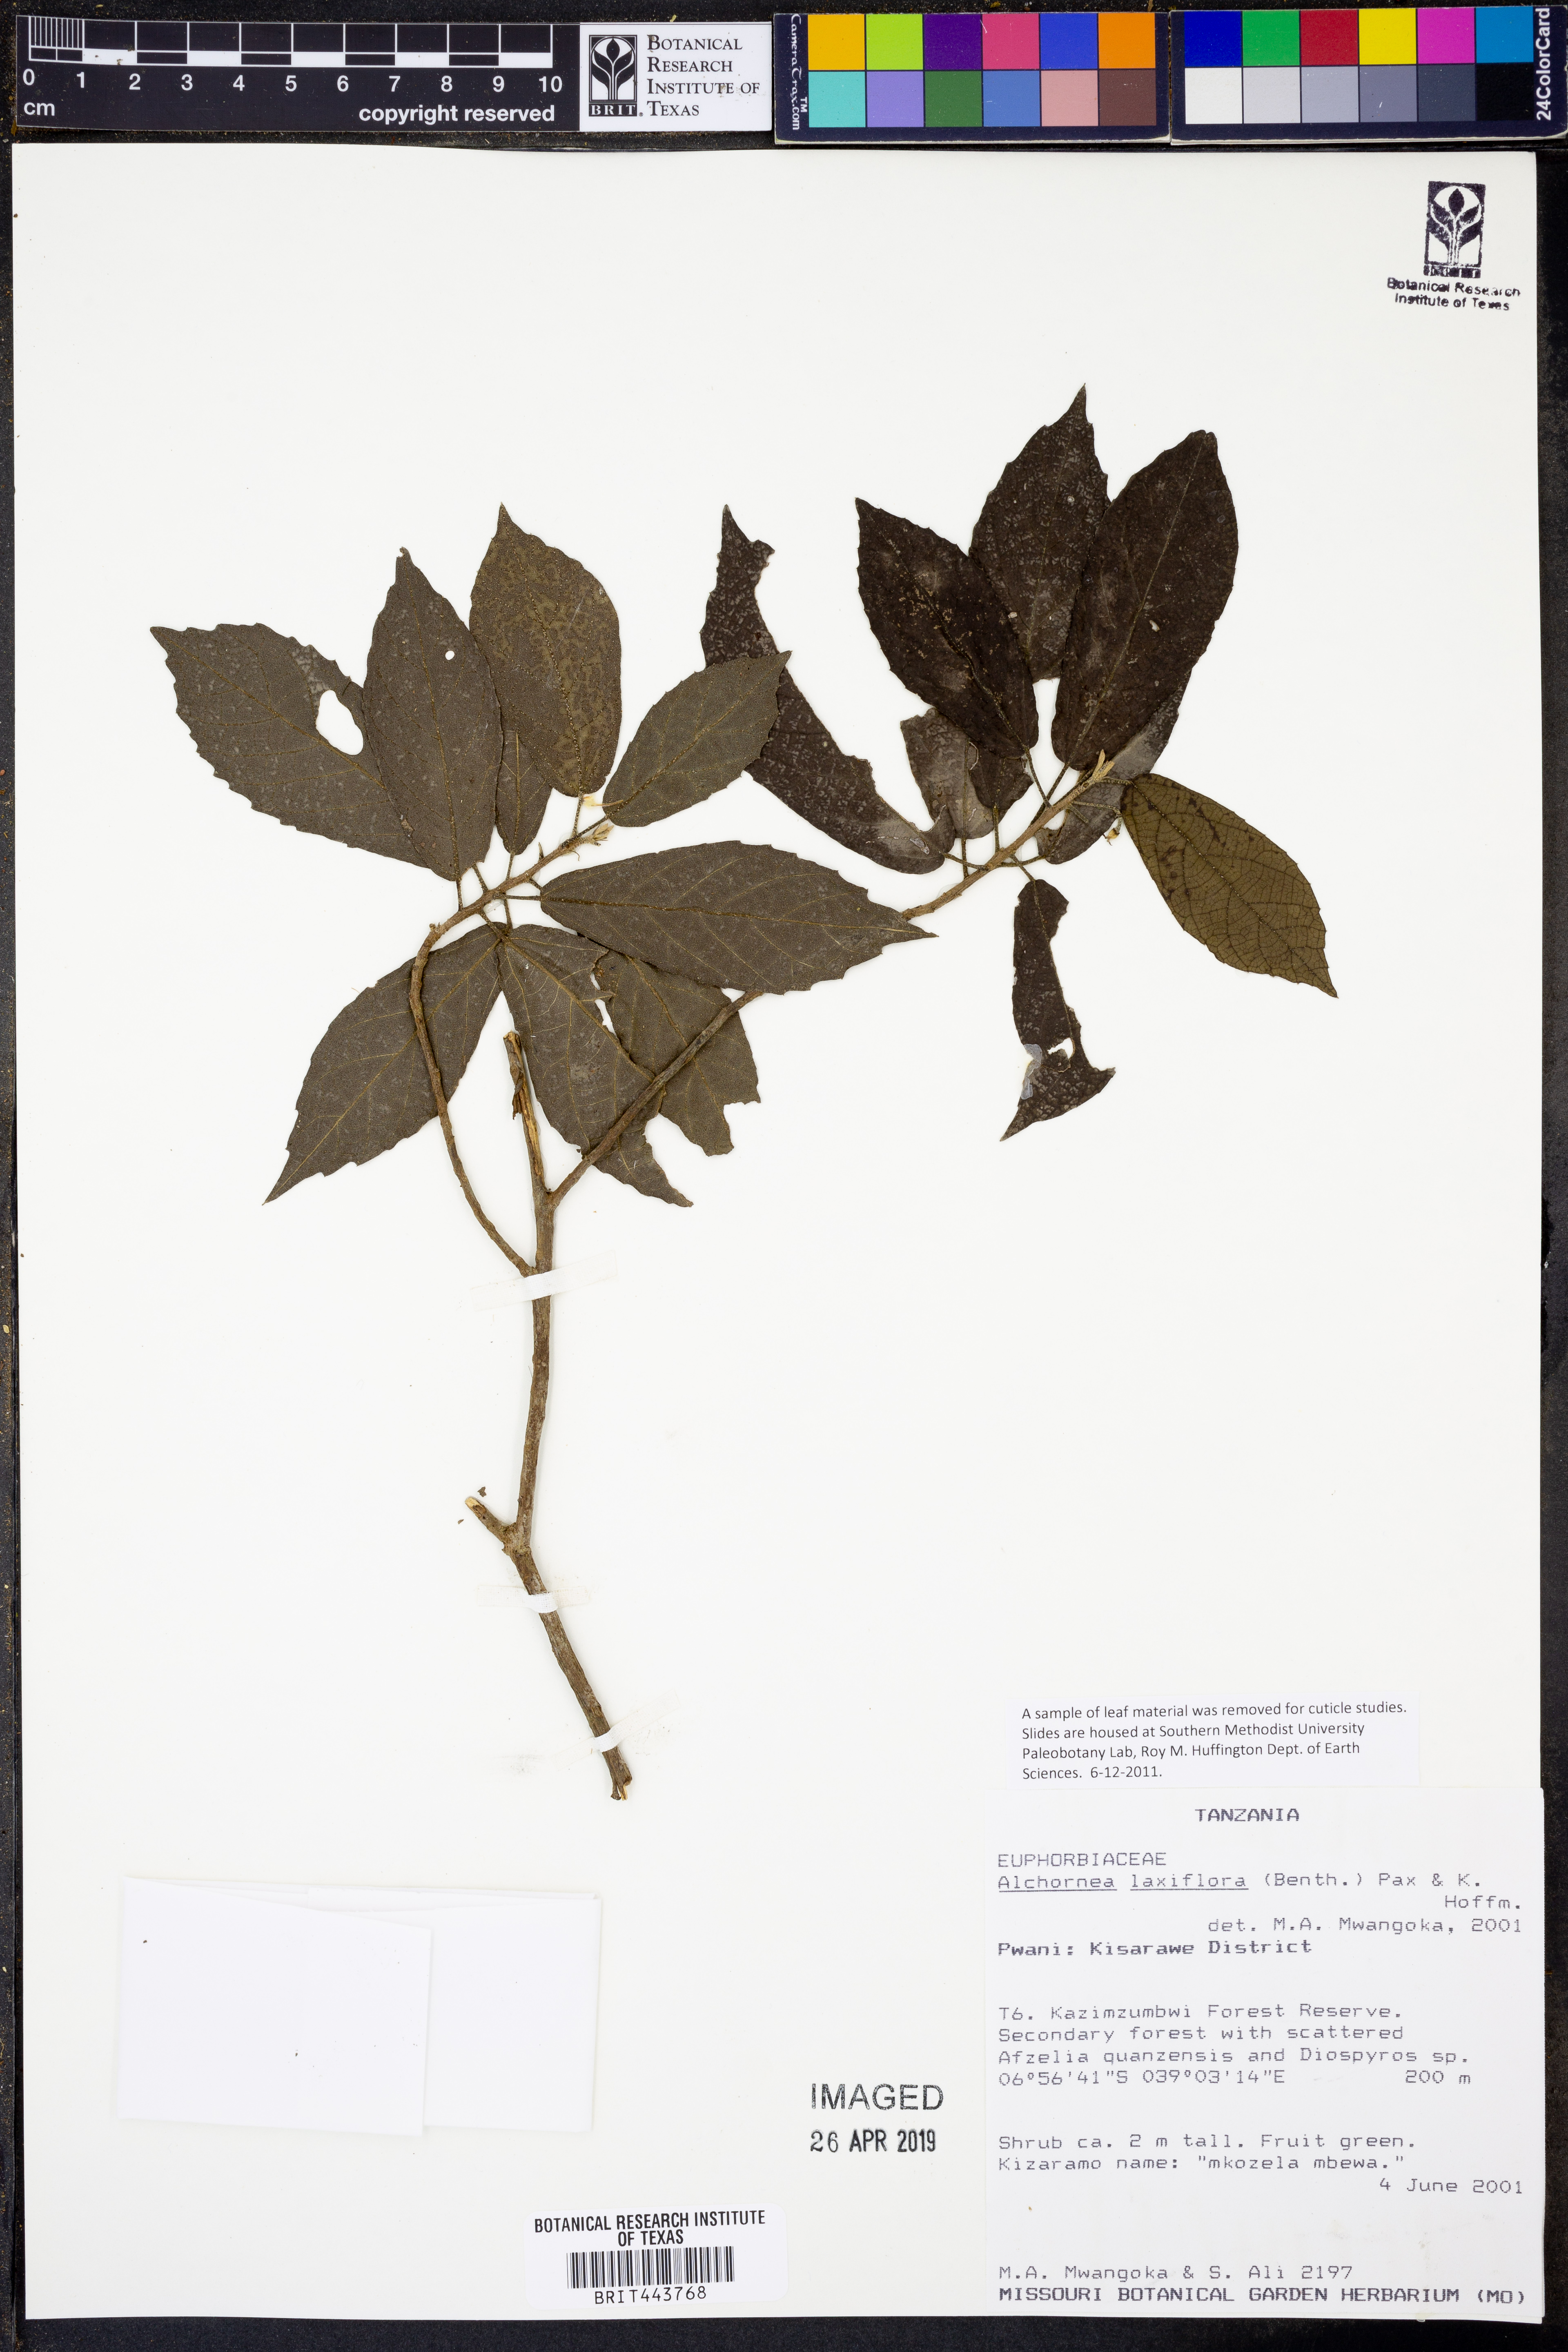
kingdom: Plantae
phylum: Tracheophyta
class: Magnoliopsida
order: Malpighiales
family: Euphorbiaceae
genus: Alchornea
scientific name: Alchornea laxiflora
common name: Lowveld bead-string
